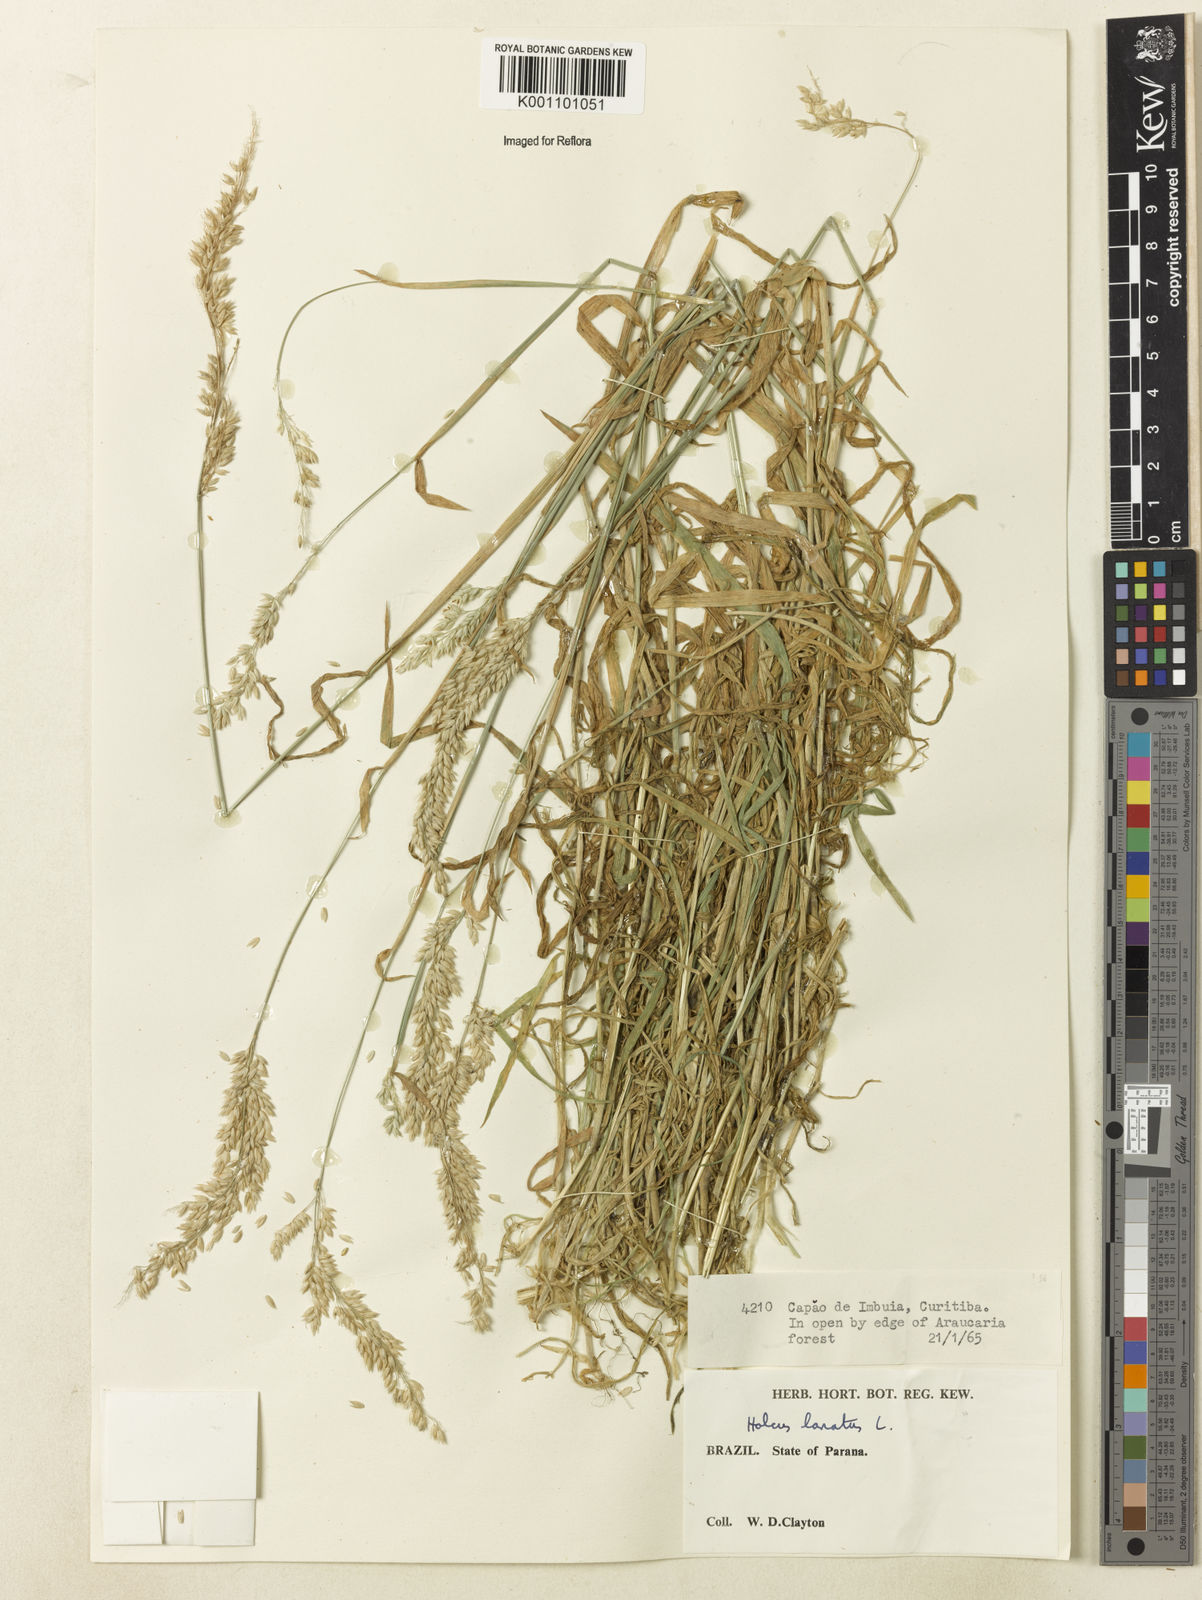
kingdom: Plantae
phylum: Tracheophyta
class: Liliopsida
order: Poales
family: Poaceae
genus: Holcus
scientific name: Holcus lanatus
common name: Yorkshire-fog
